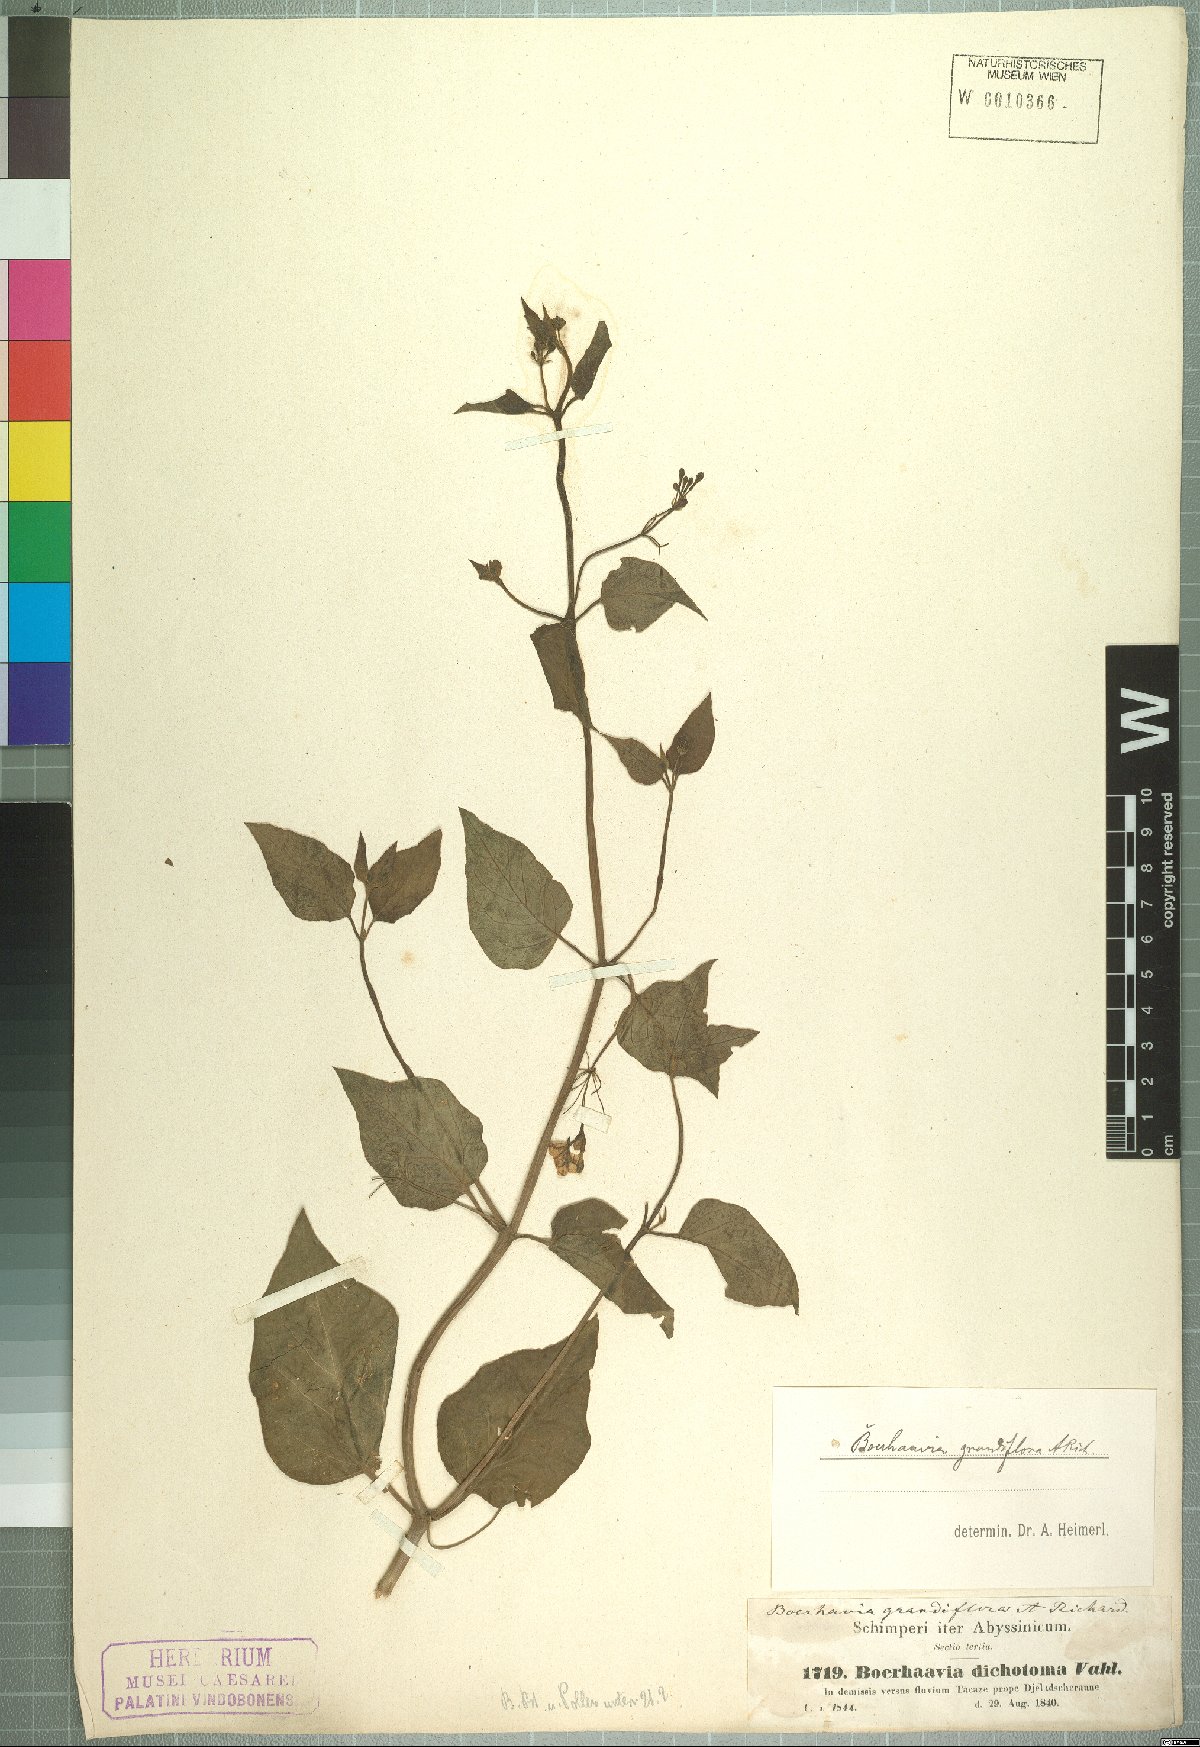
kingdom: Plantae
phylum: Tracheophyta
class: Magnoliopsida
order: Caryophyllales
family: Nyctaginaceae
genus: Commicarpus
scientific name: Commicarpus grandiflorus
